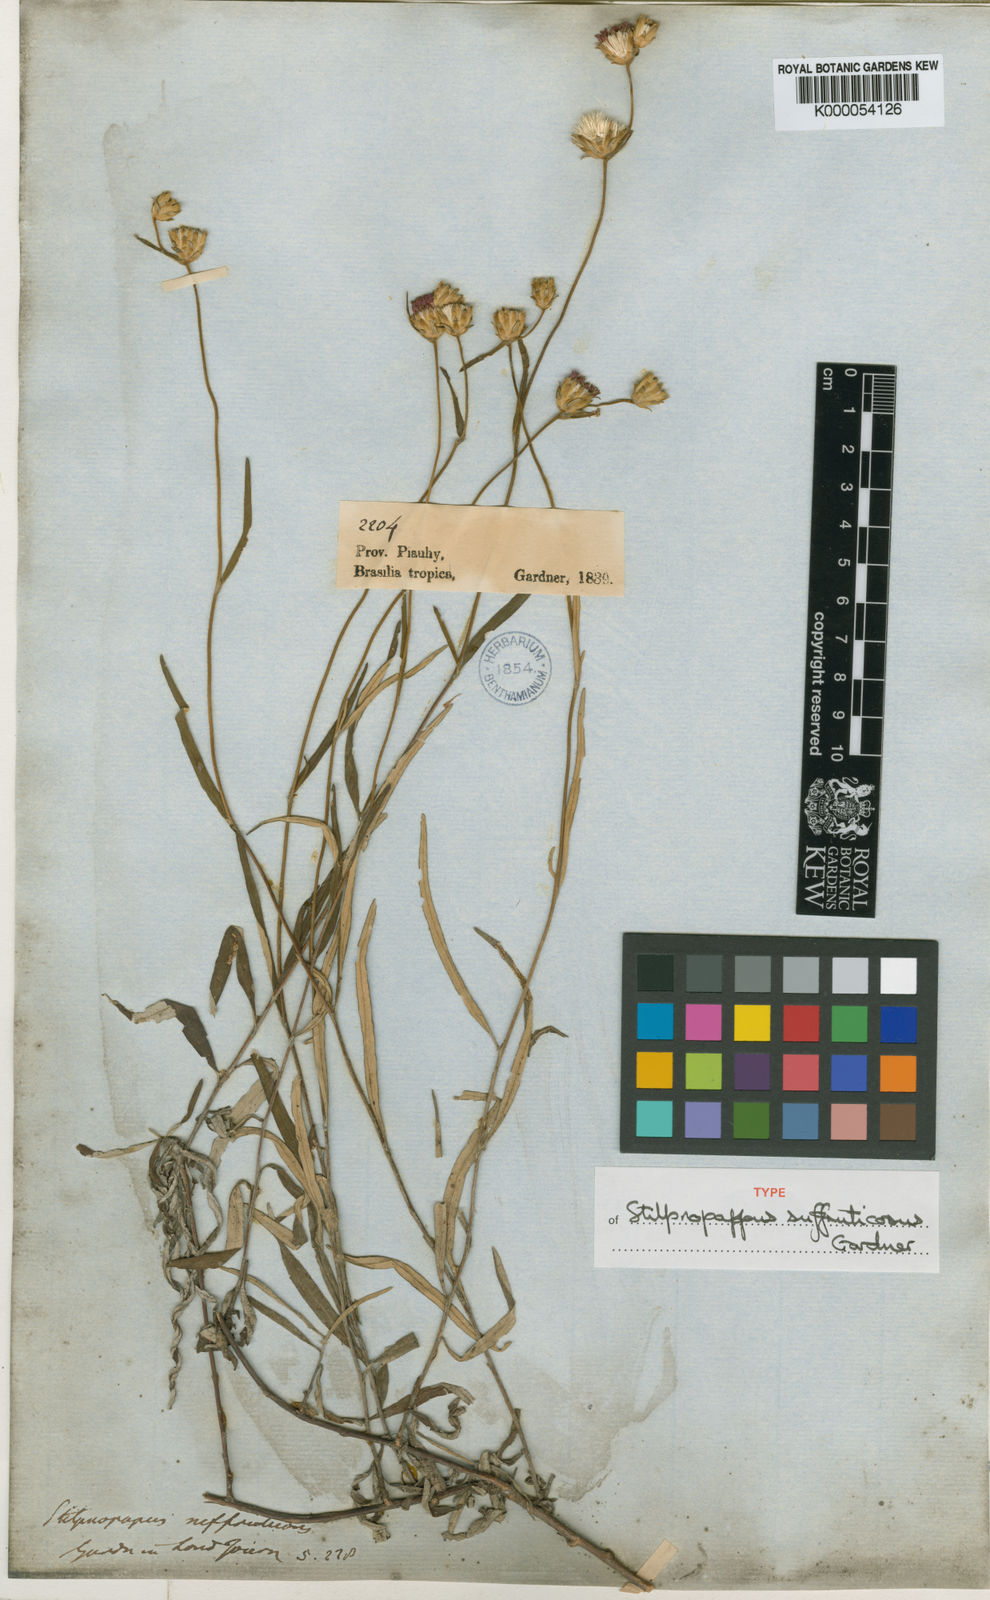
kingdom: Plantae
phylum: Tracheophyta
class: Magnoliopsida
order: Asterales
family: Asteraceae
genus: Stilpnopappus
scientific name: Stilpnopappus suffruticosus
